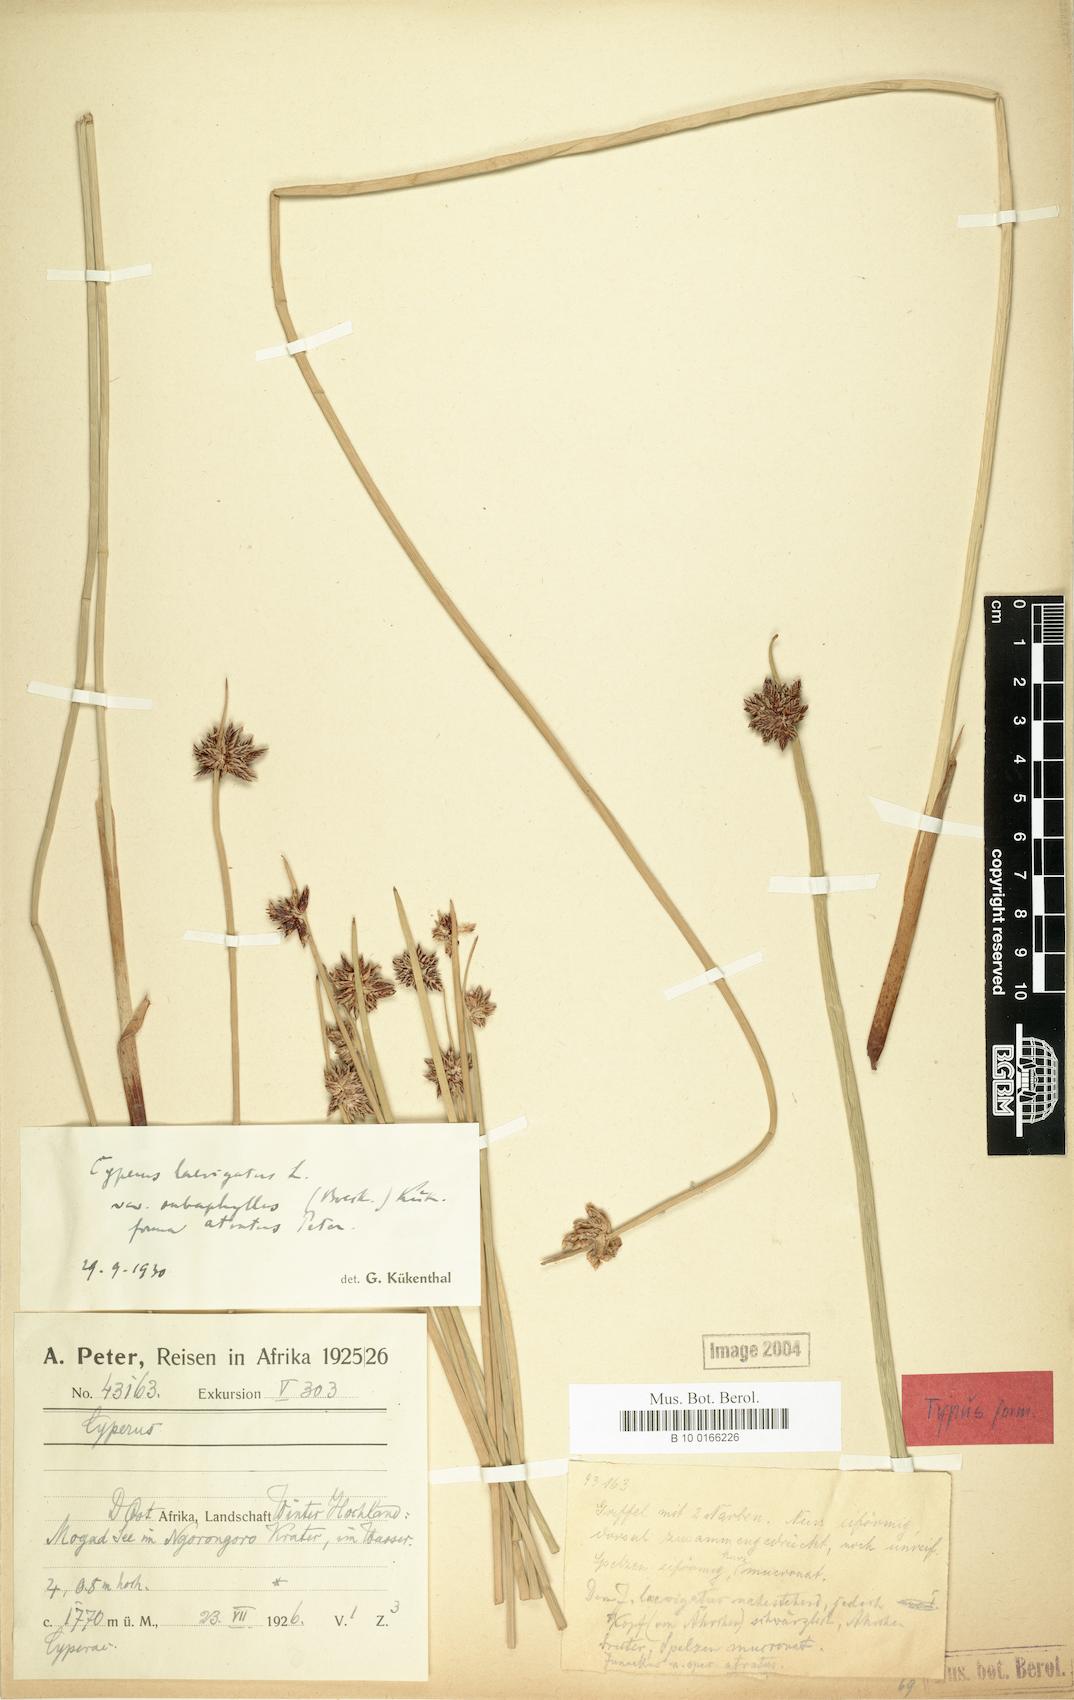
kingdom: Plantae
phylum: Tracheophyta
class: Liliopsida
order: Poales
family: Cyperaceae
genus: Cyperus
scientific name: Cyperus laevigatus
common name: Smooth flat sedge
